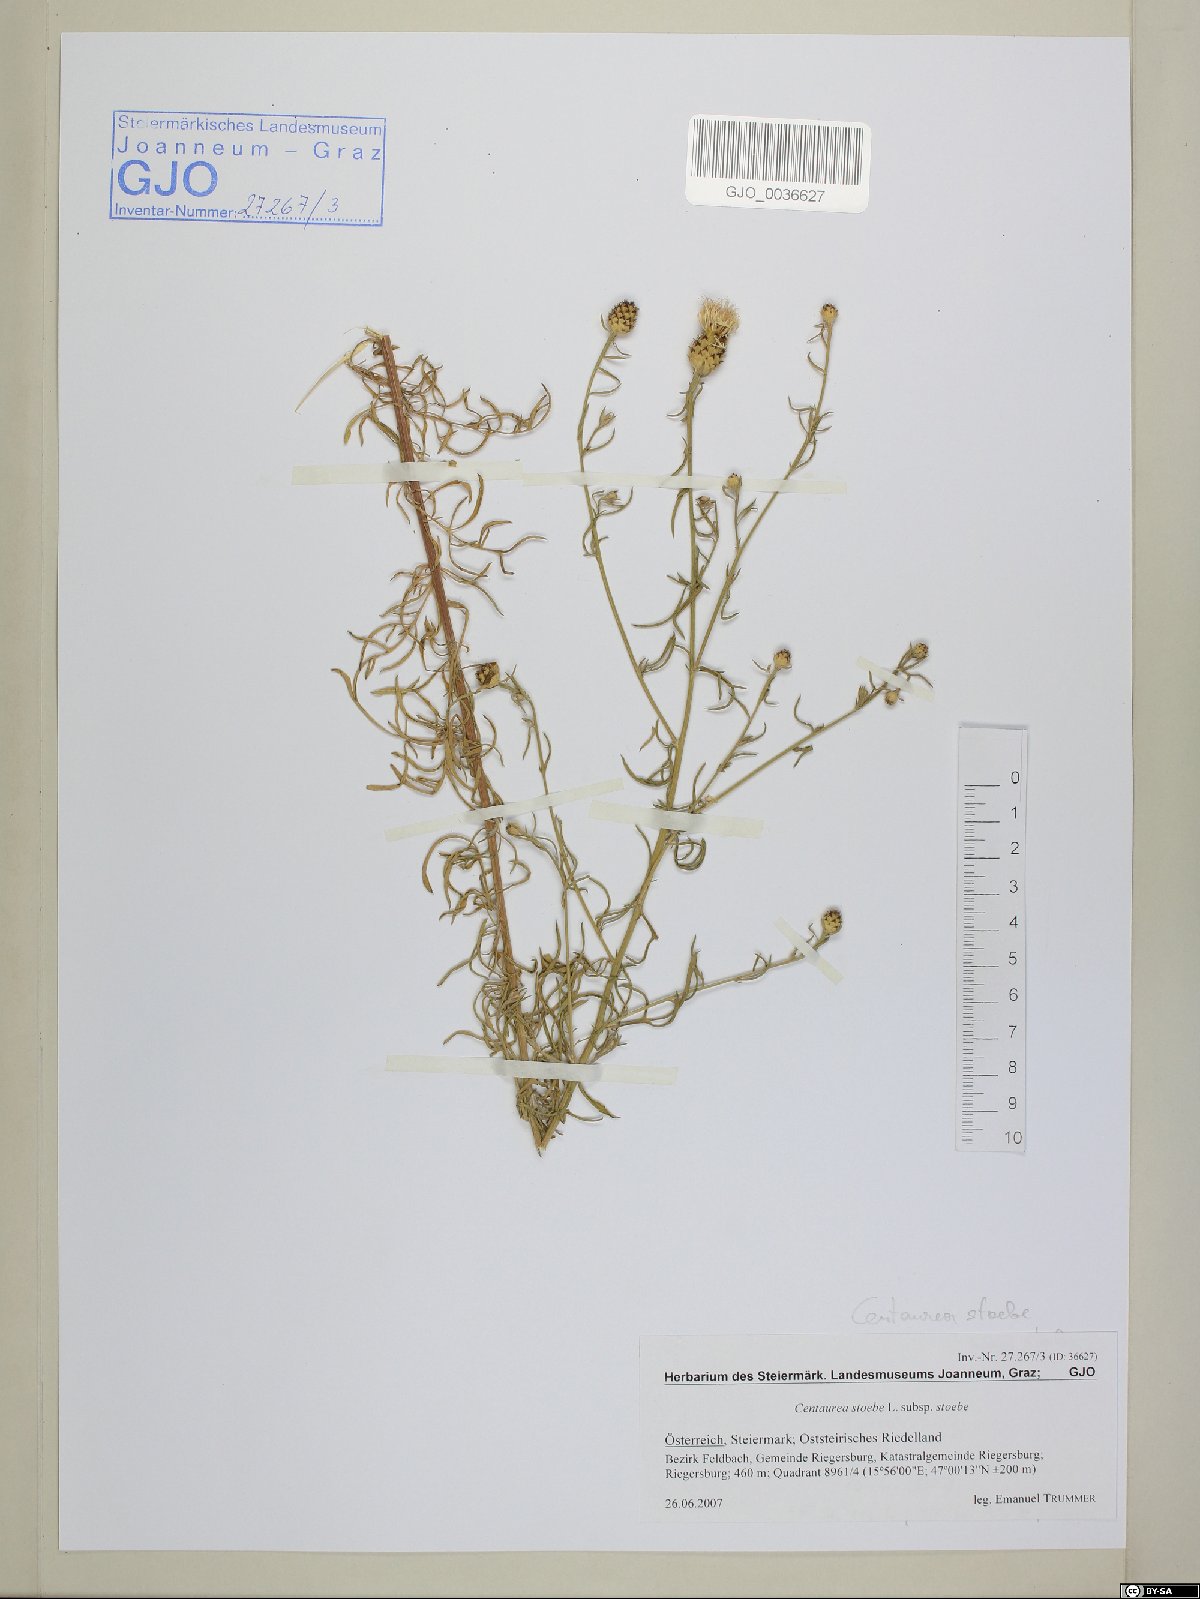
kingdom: Plantae
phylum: Tracheophyta
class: Magnoliopsida
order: Asterales
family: Asteraceae
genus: Centaurea
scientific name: Centaurea stoebe
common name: Spotted knapweed
